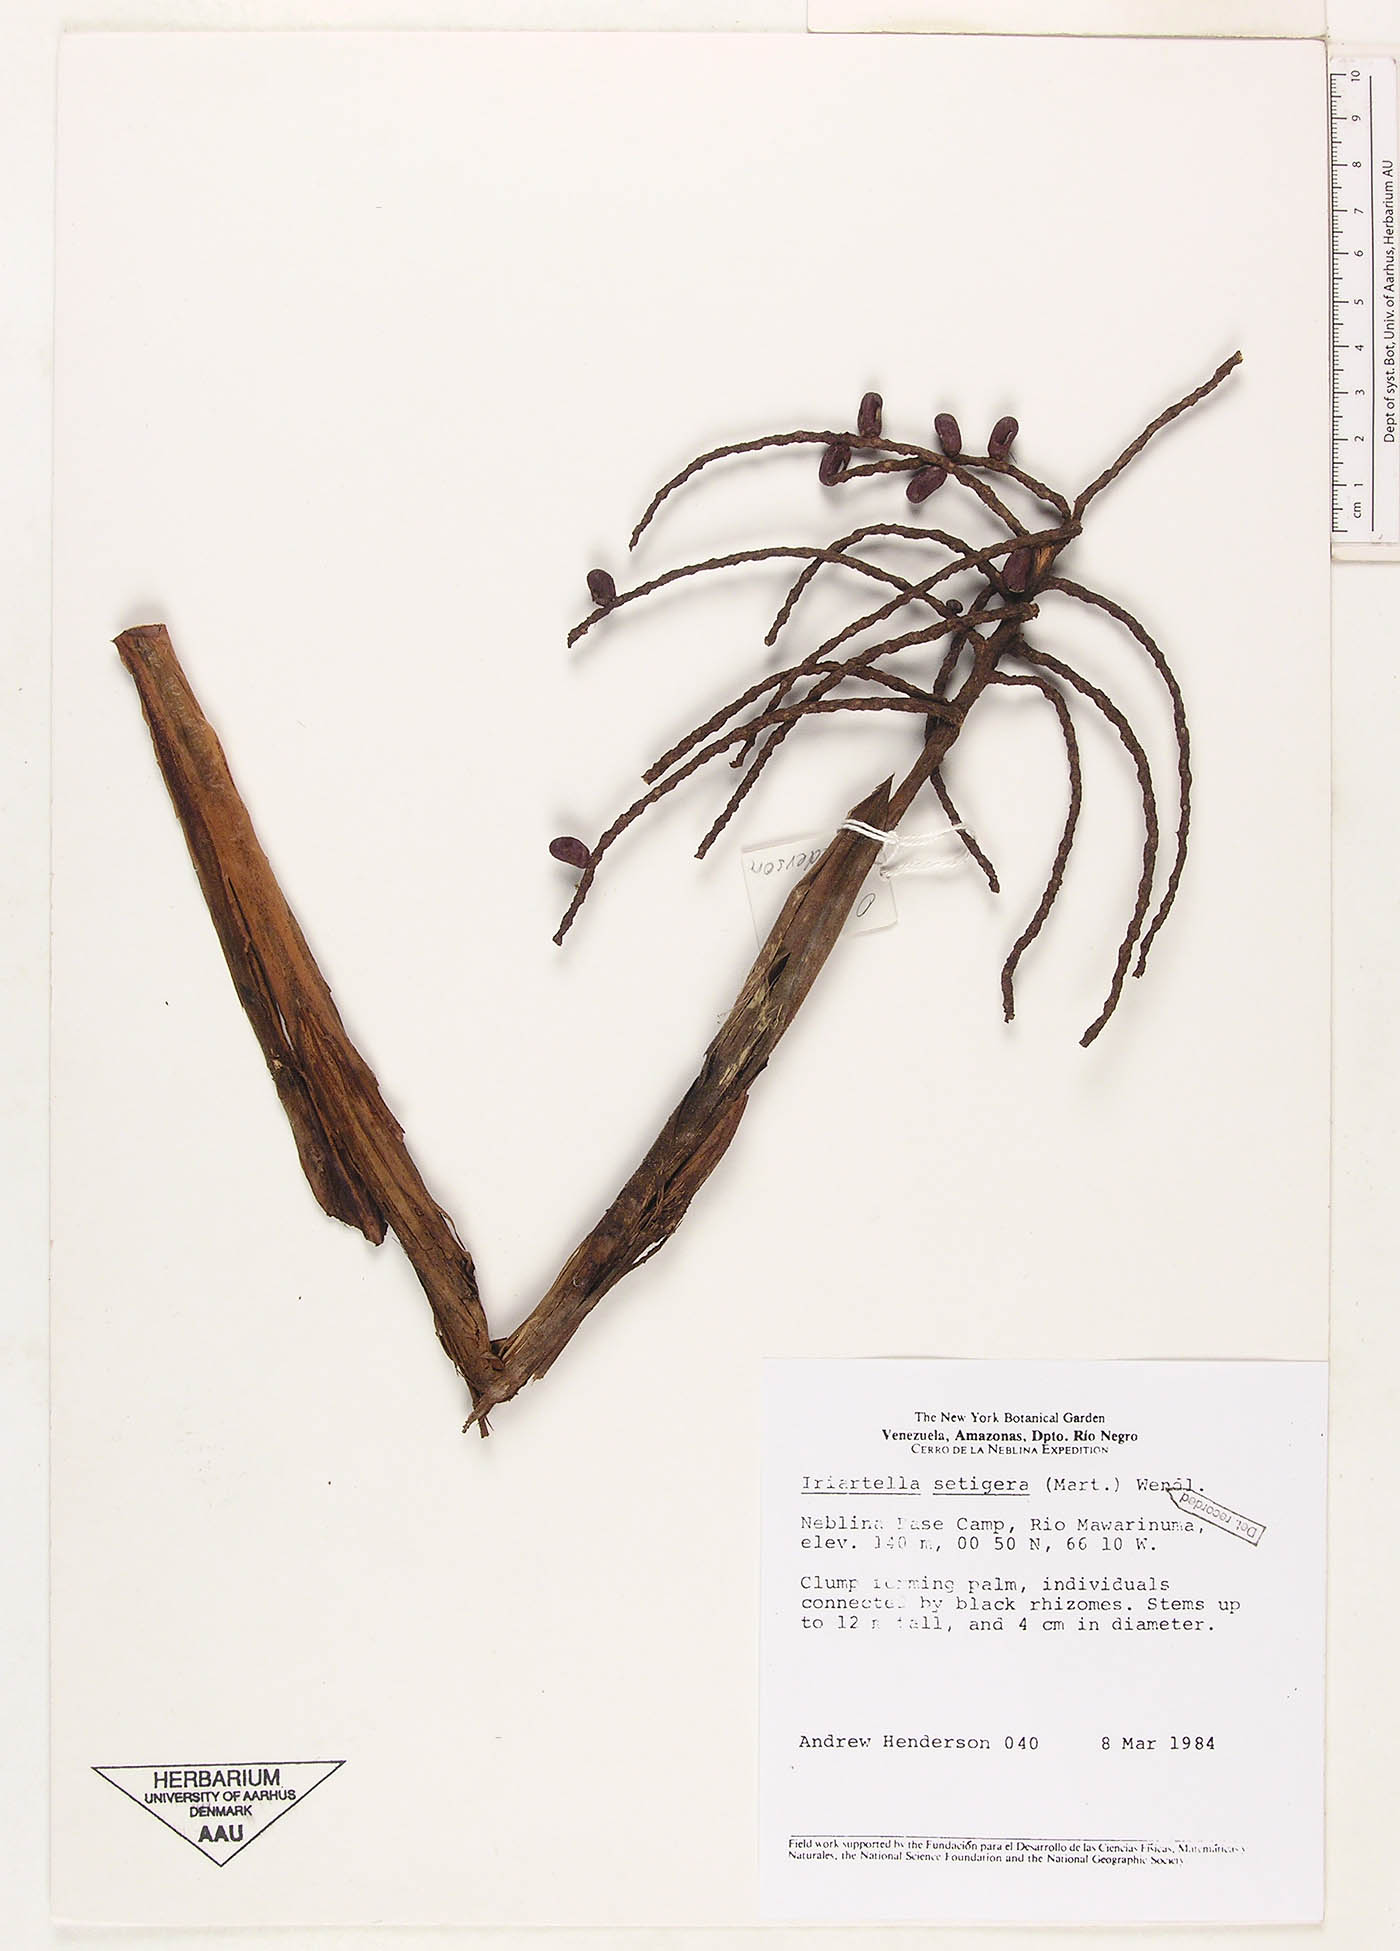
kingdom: Plantae
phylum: Tracheophyta
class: Liliopsida
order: Arecales
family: Arecaceae
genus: Iriartella
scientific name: Iriartella setigera
